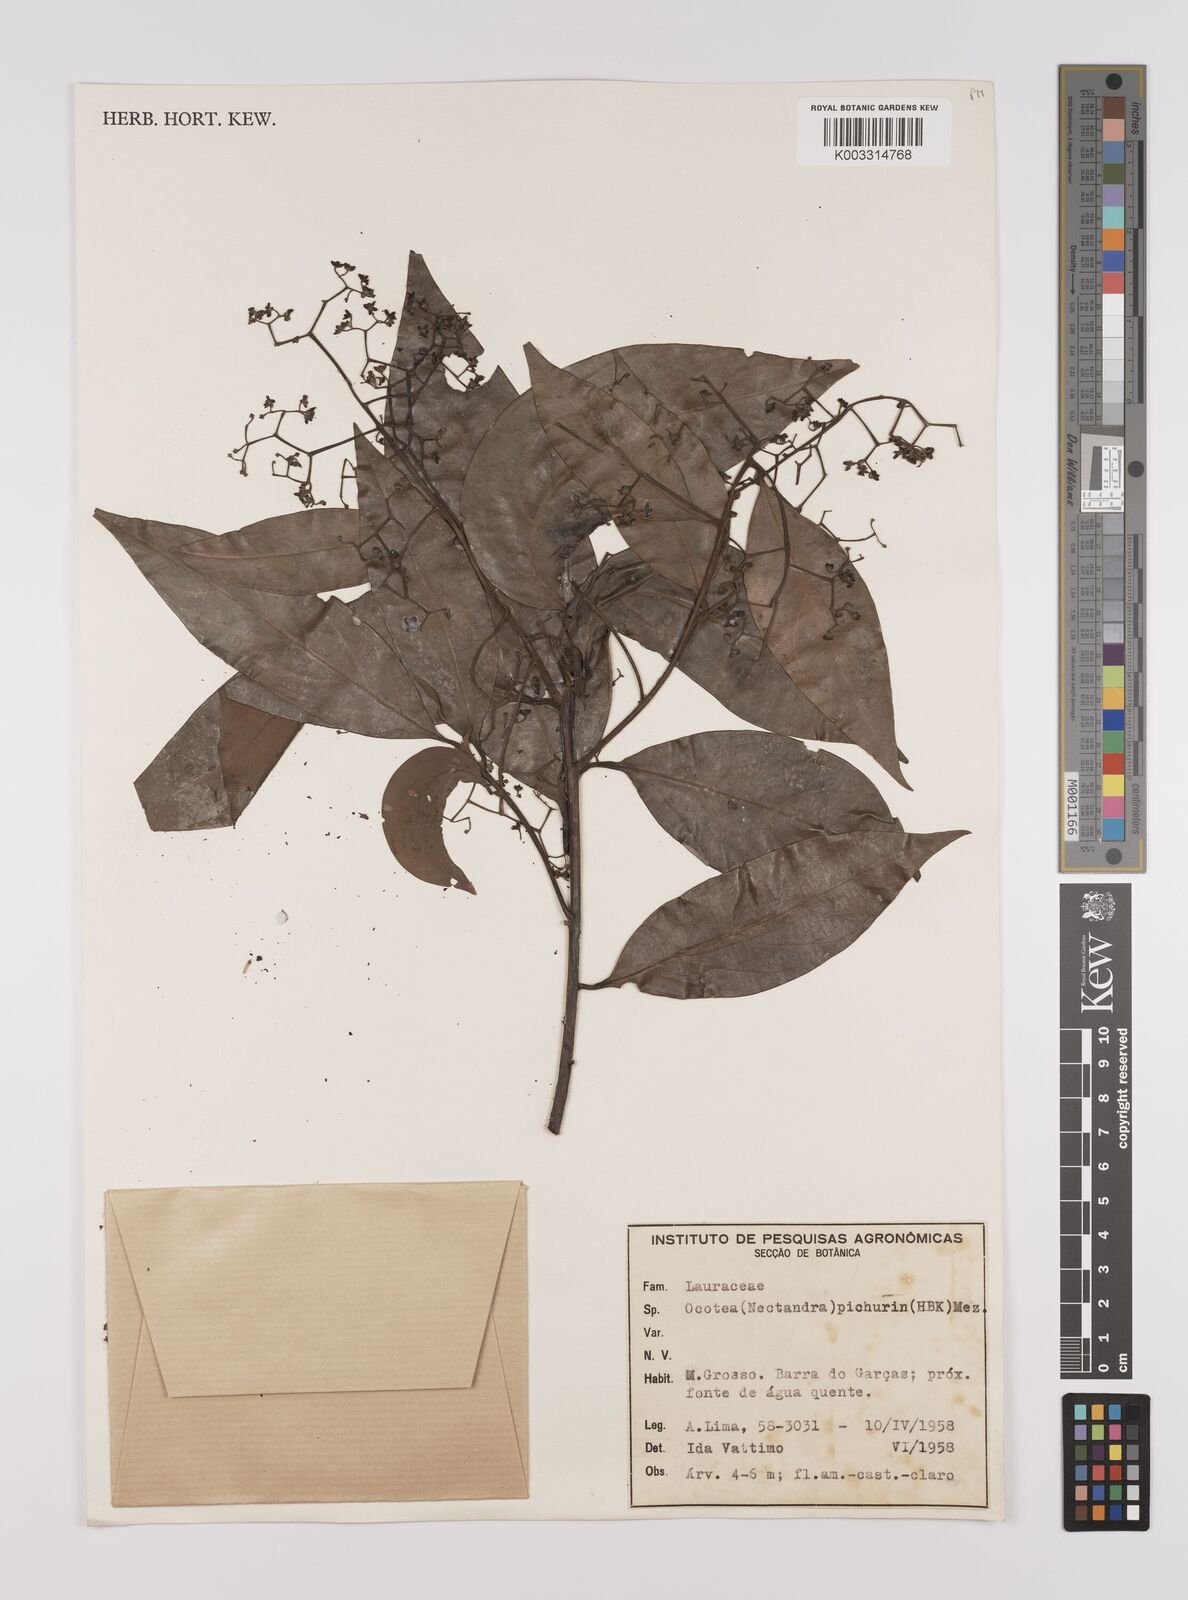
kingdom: Plantae
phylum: Tracheophyta
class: Magnoliopsida
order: Laurales
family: Lauraceae
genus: Nectandra
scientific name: Nectandra cuspidata
